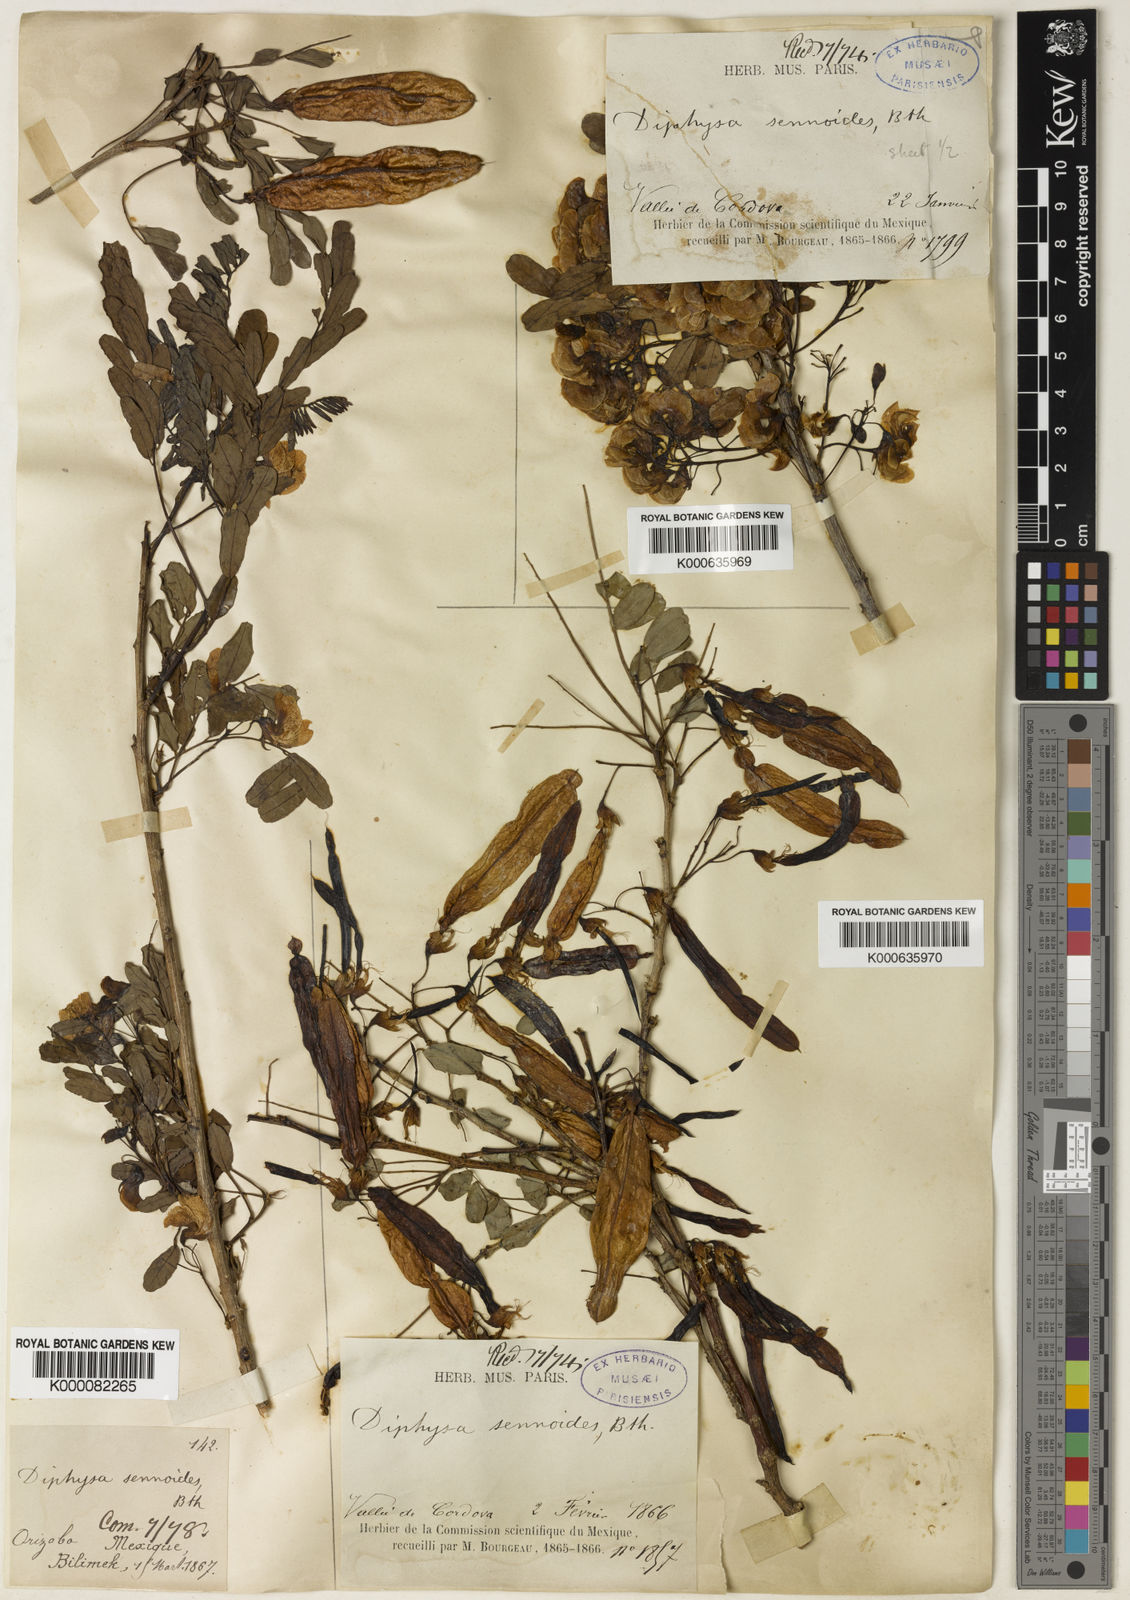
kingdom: Plantae
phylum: Tracheophyta
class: Magnoliopsida
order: Fabales
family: Fabaceae
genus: Diphysa
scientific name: Diphysa sennoides
